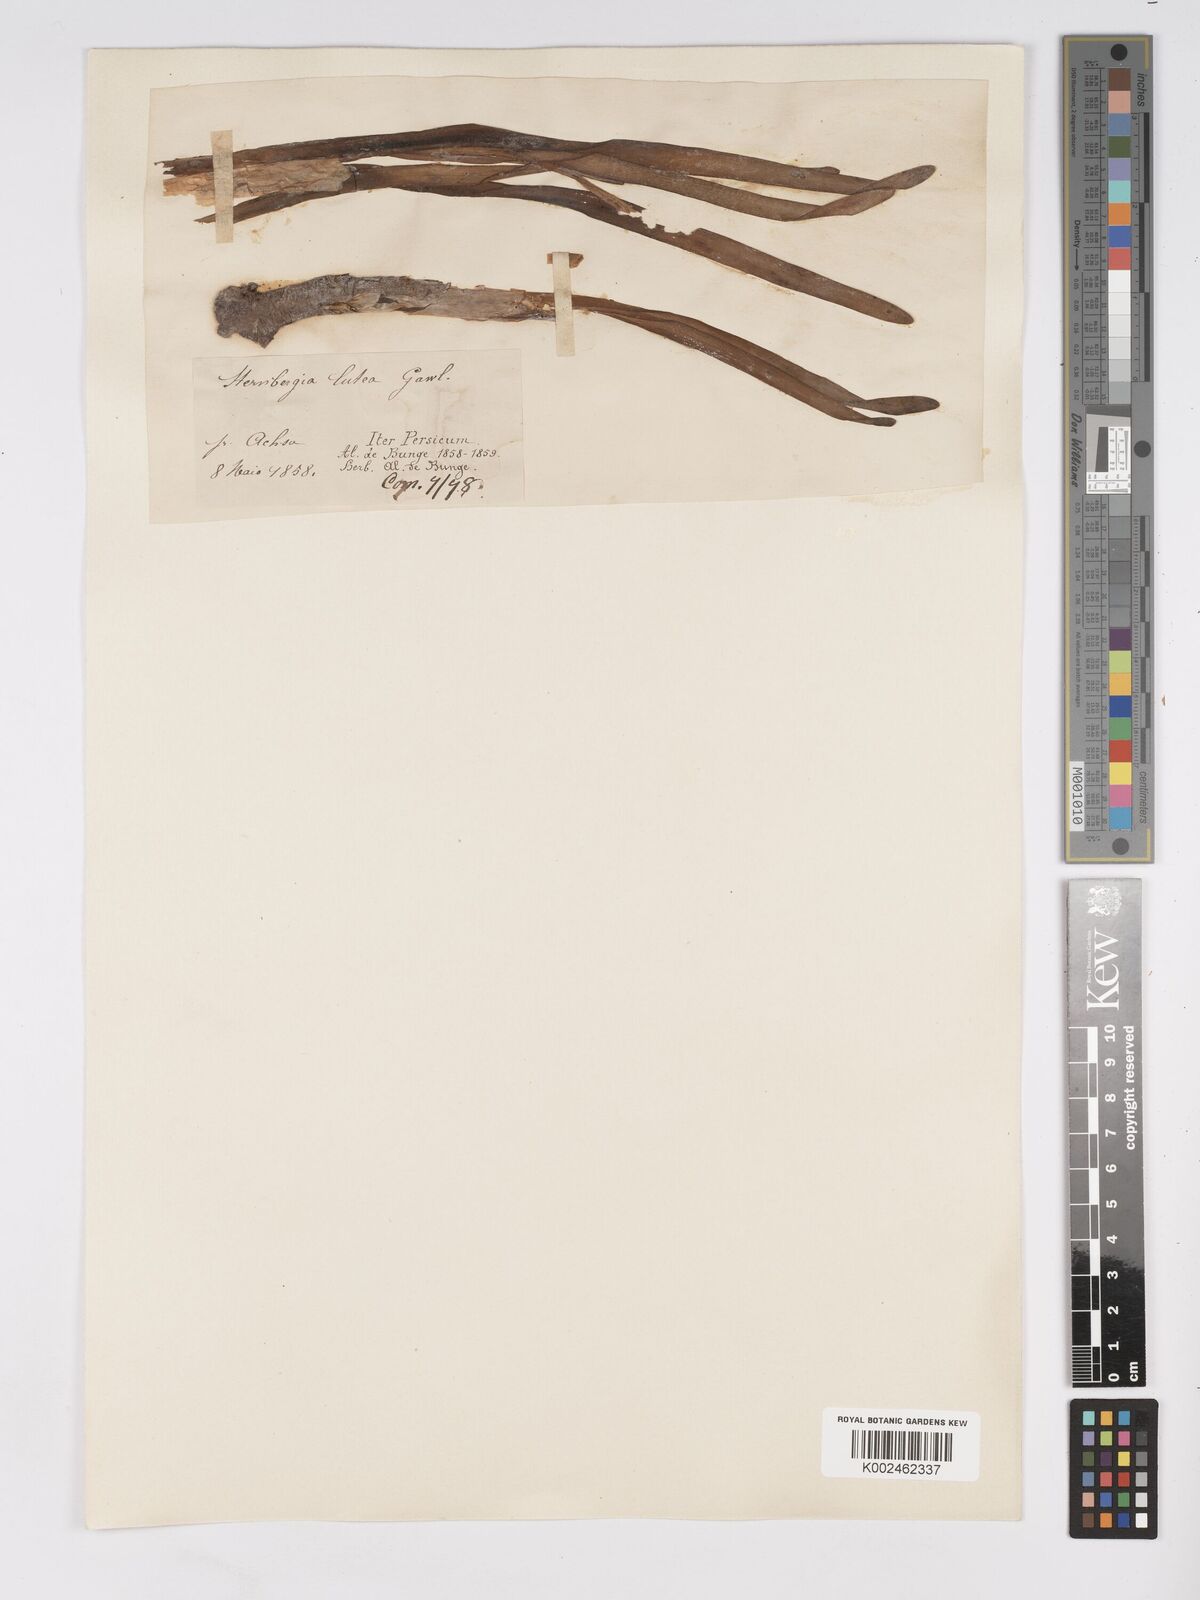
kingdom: Plantae
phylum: Tracheophyta
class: Liliopsida
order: Asparagales
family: Amaryllidaceae
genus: Sternbergia
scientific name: Sternbergia vernalis
